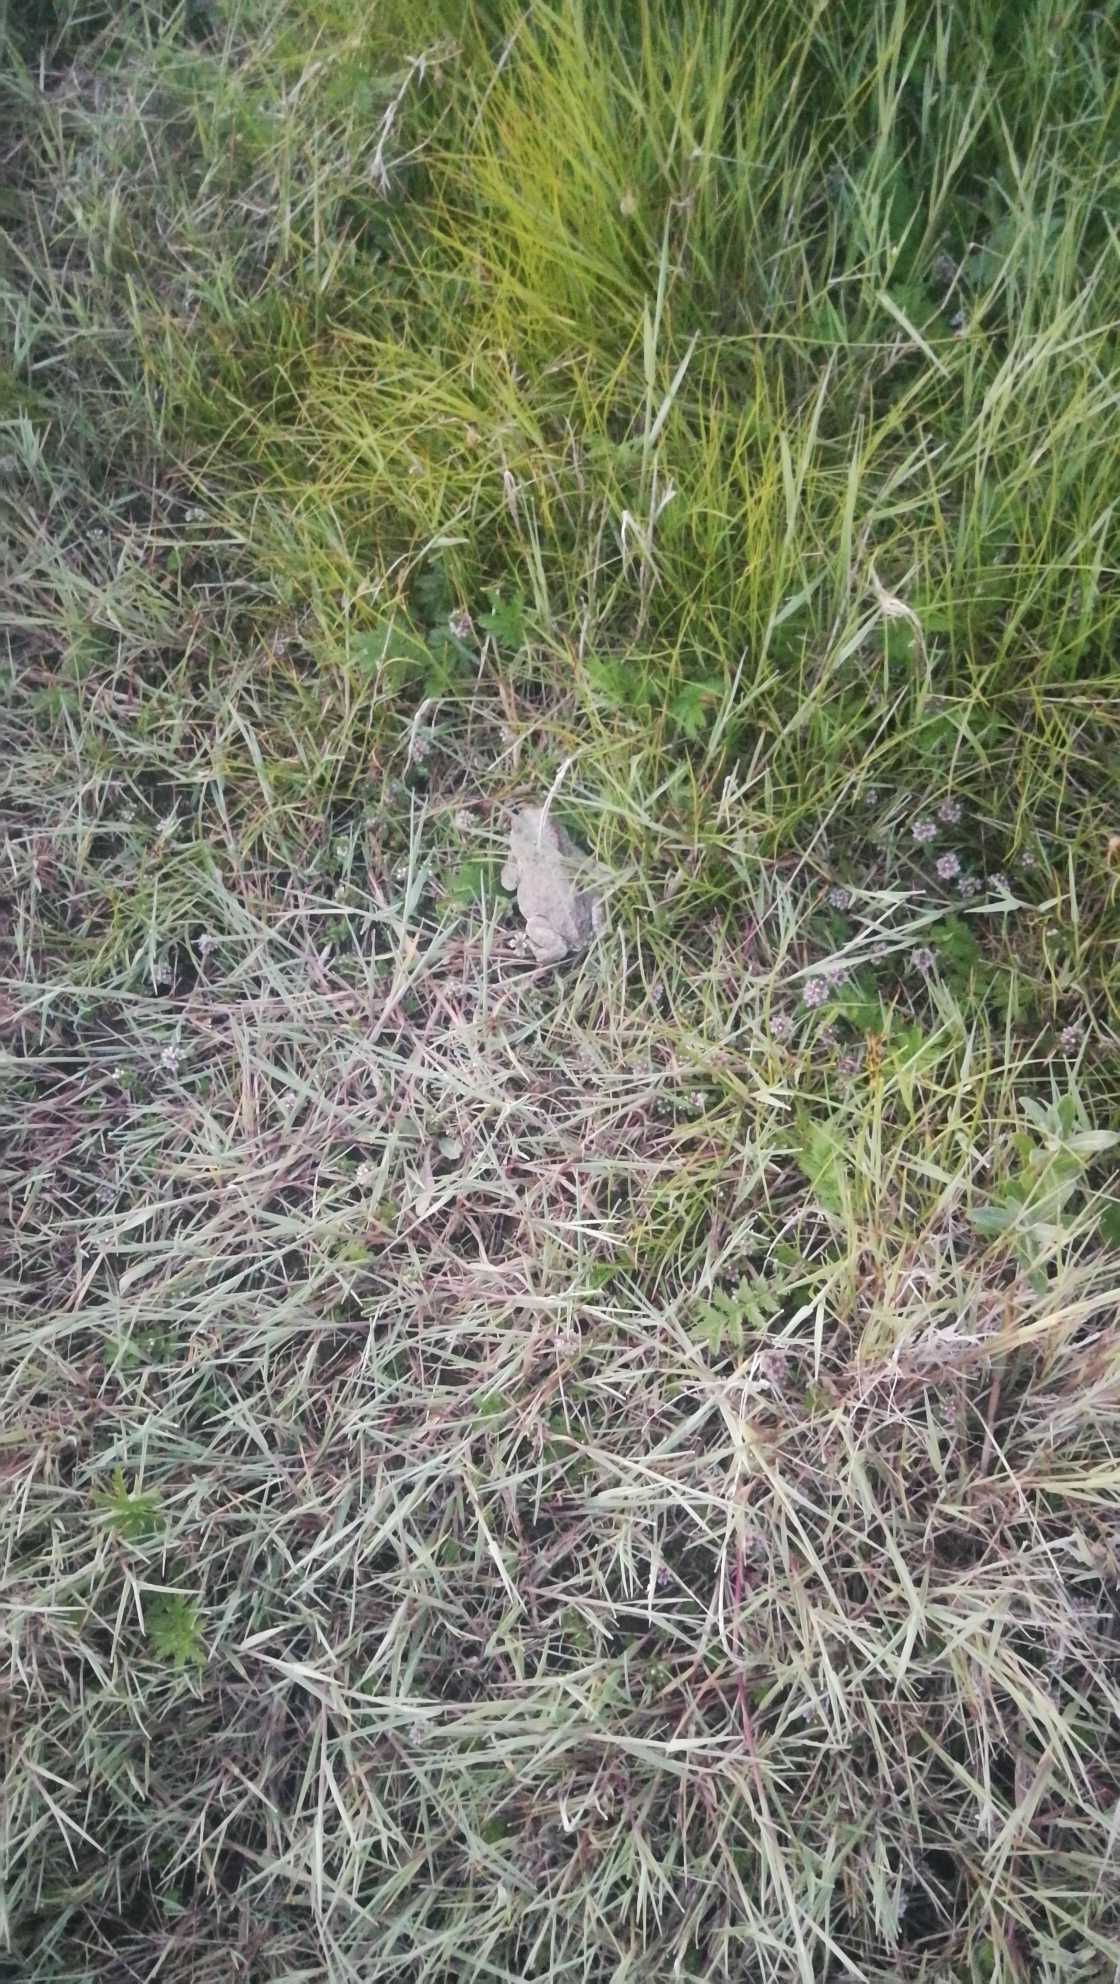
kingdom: Animalia
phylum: Chordata
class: Amphibia
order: Anura
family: Bufonidae
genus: Epidalea
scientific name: Epidalea calamita
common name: Strandtudse
